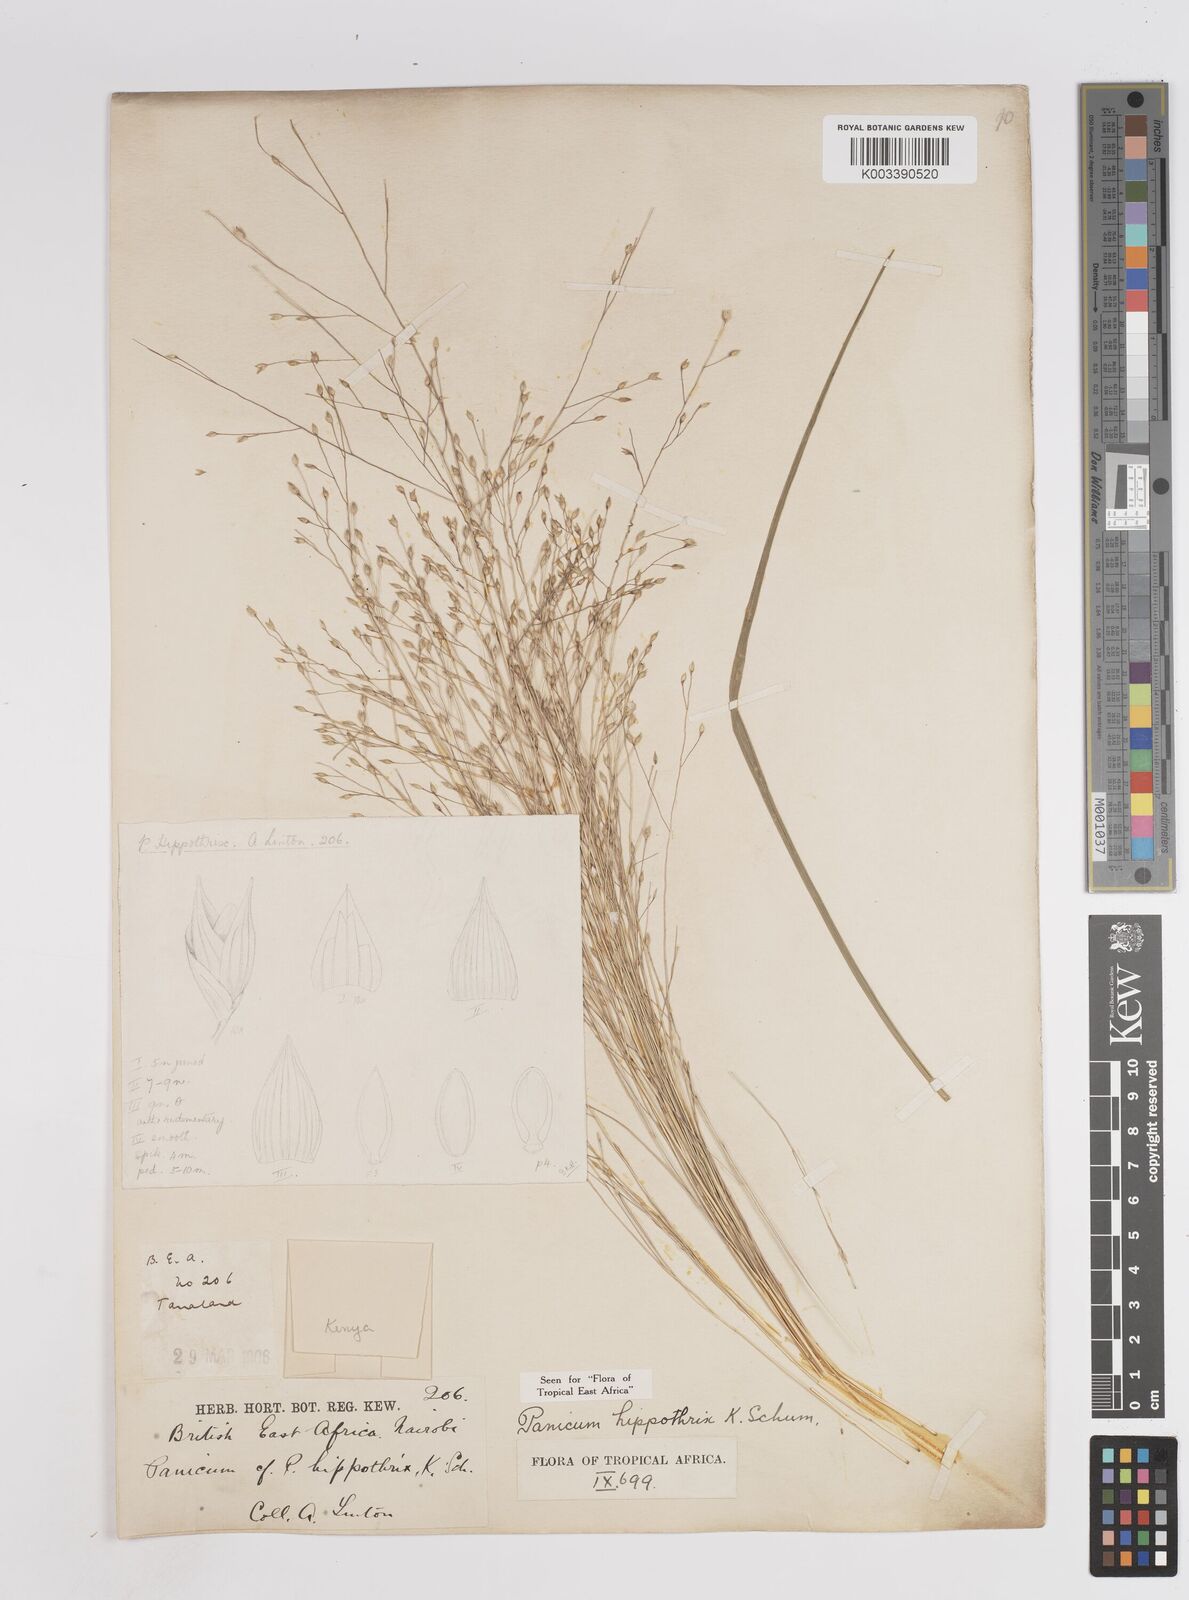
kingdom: Plantae
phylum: Tracheophyta
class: Liliopsida
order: Poales
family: Poaceae
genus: Panicum
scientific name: Panicum hippothrix
